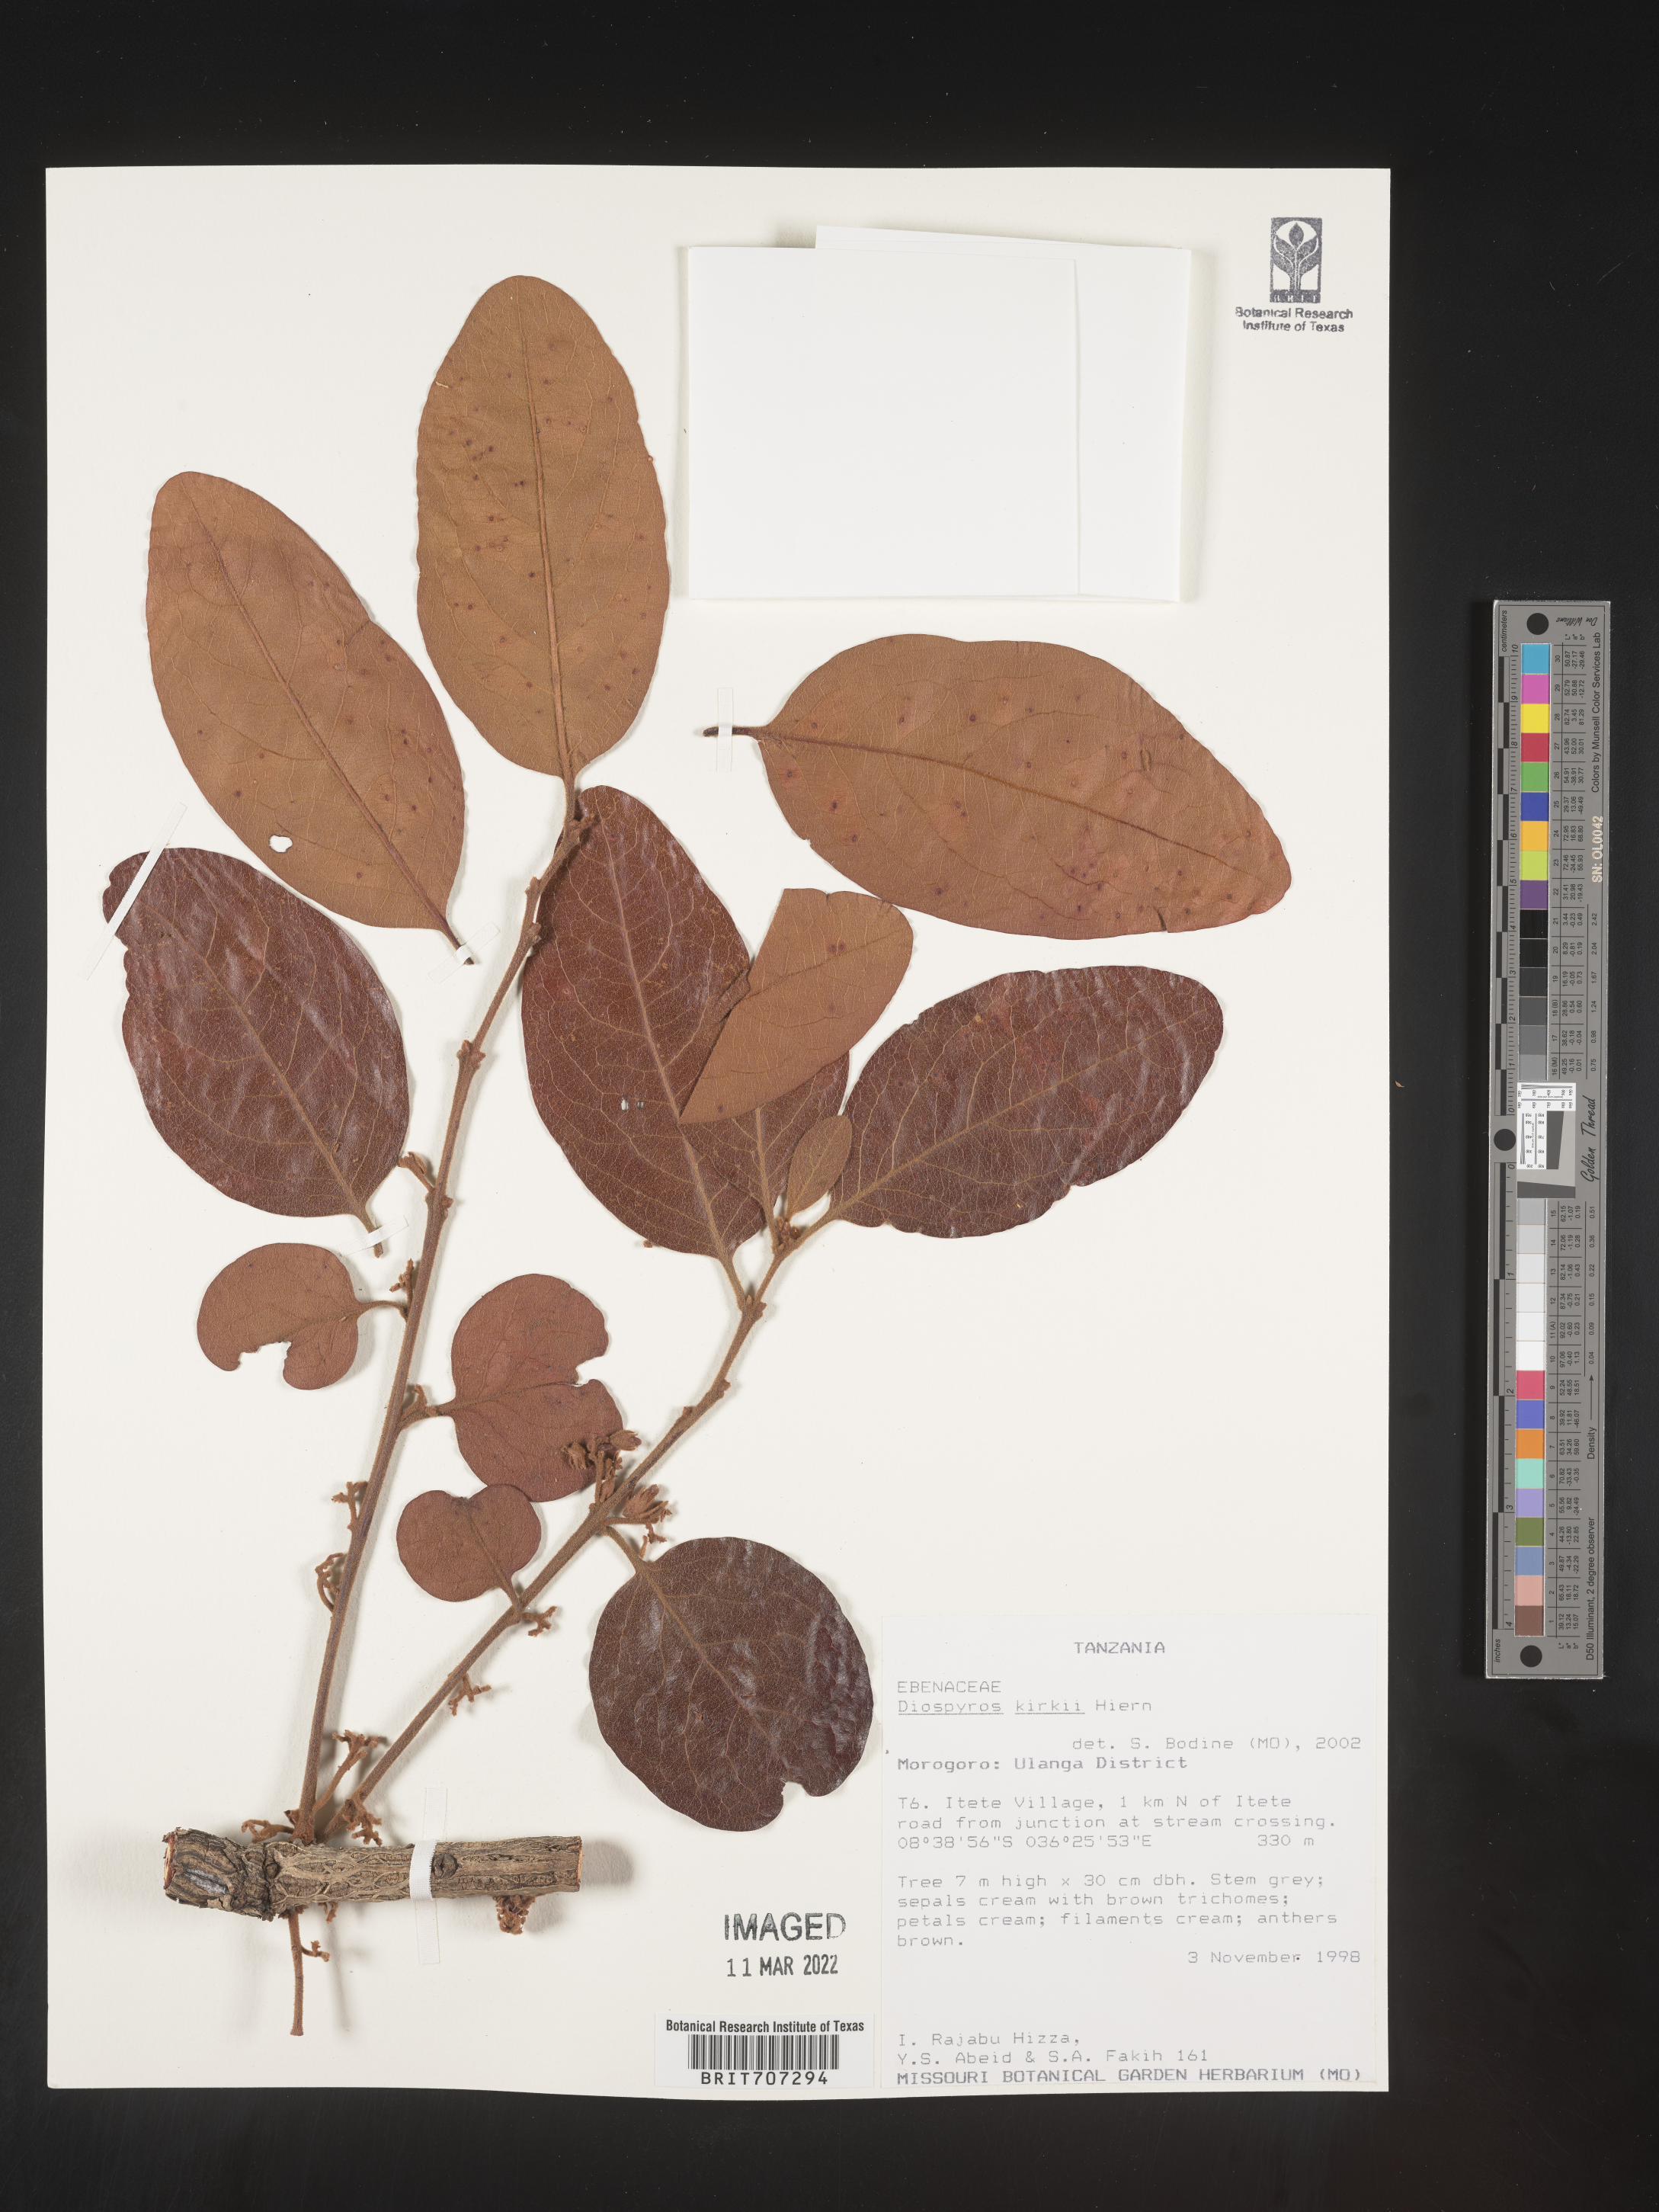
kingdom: Plantae
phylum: Tracheophyta
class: Magnoliopsida
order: Ericales
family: Ebenaceae
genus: Diospyros
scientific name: Diospyros
